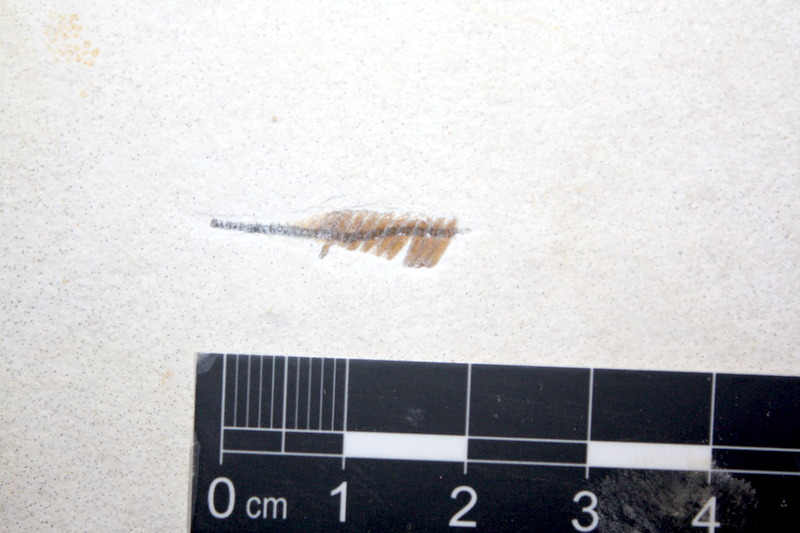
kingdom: Animalia
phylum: Chordata
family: Pleuropholidae
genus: Pleuropholis
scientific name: Pleuropholis laevissima
